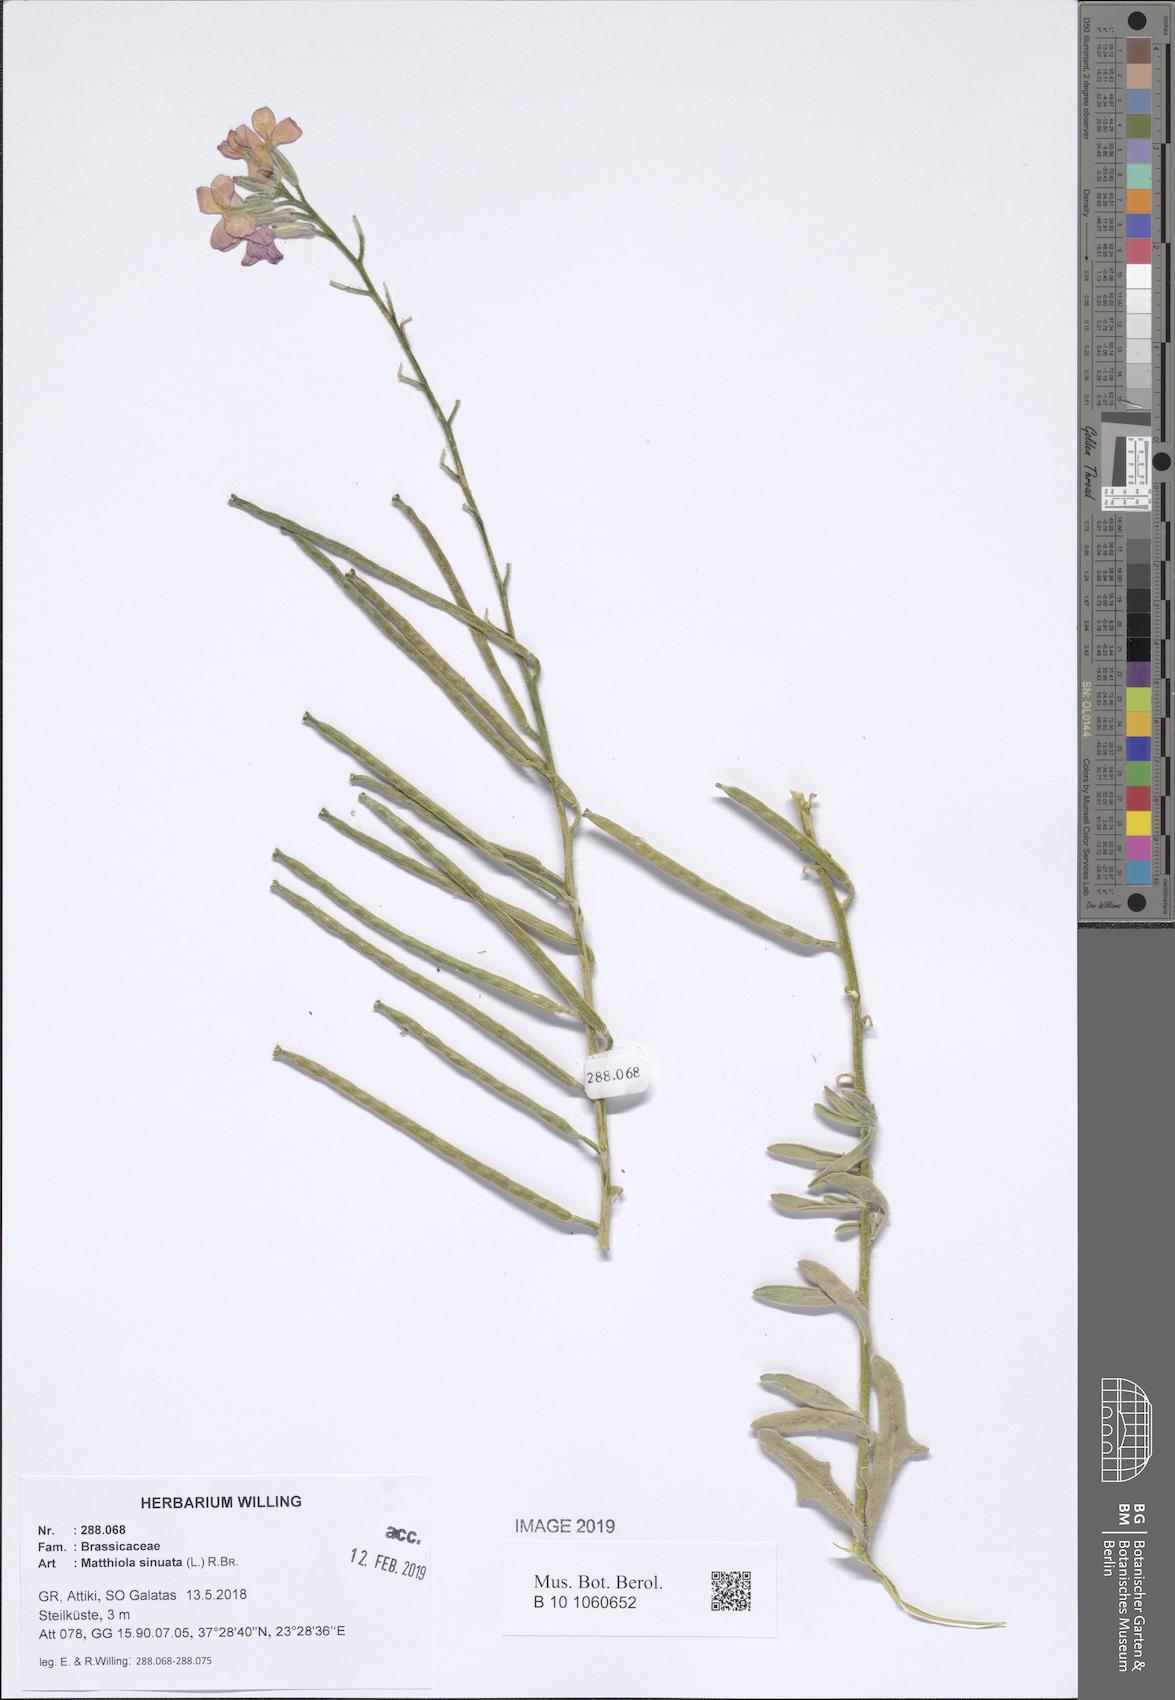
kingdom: Plantae
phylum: Tracheophyta
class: Magnoliopsida
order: Brassicales
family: Brassicaceae
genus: Matthiola
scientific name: Matthiola sinuata
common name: Sea stock
